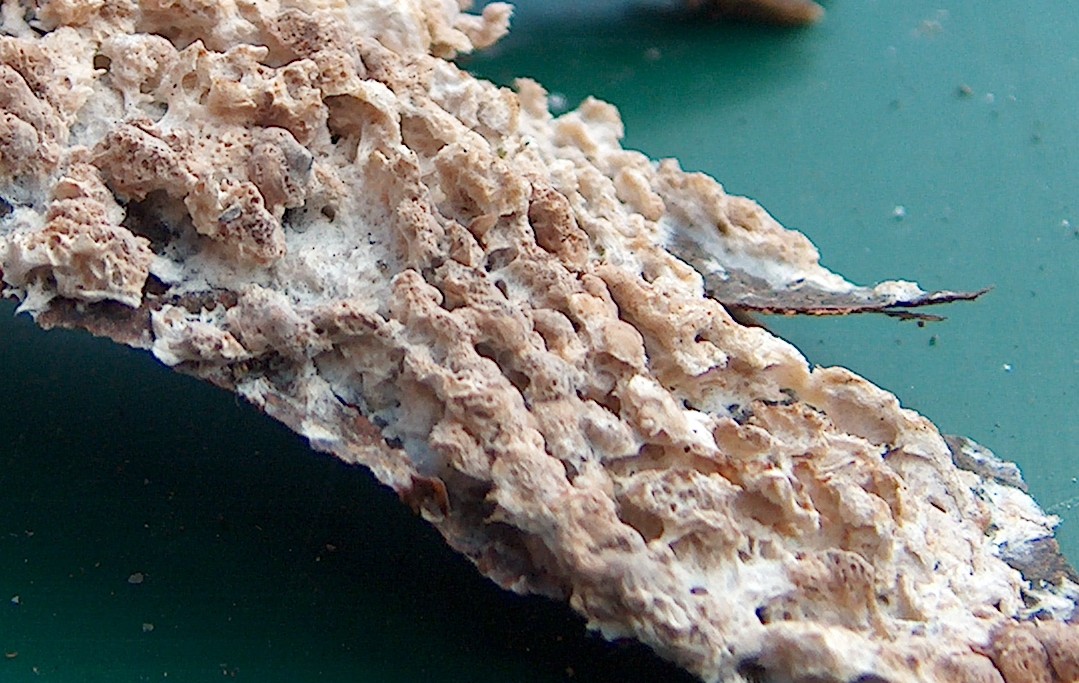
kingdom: Fungi
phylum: Basidiomycota
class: Agaricomycetes
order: Polyporales
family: Meruliaceae
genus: Hypochnicium
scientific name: Hypochnicium bombycinum
